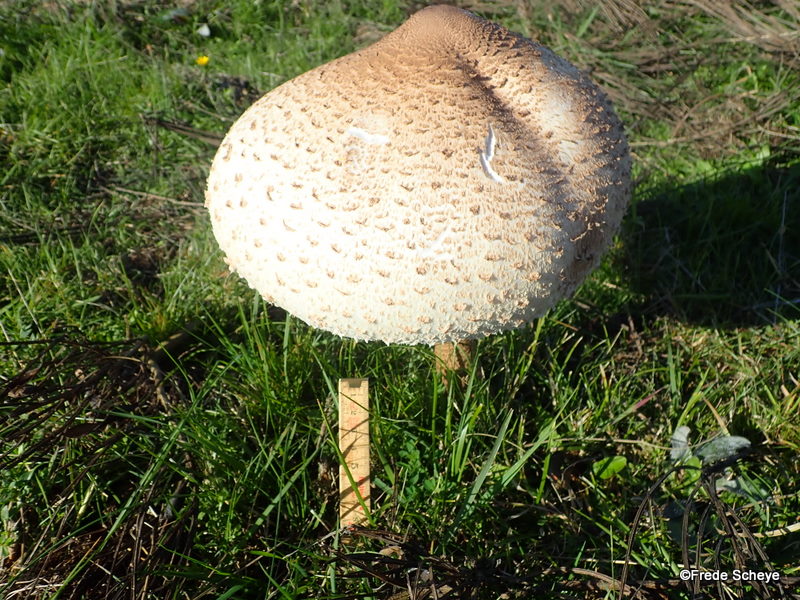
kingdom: Fungi
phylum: Basidiomycota
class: Agaricomycetes
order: Agaricales
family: Agaricaceae
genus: Macrolepiota
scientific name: Macrolepiota procera
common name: stor kæmpeparasolhat
